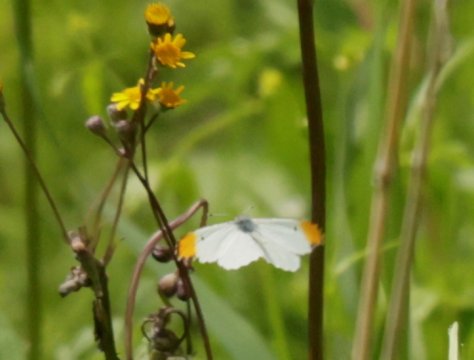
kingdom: Animalia
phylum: Arthropoda
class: Insecta
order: Lepidoptera
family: Pieridae
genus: Anthocharis
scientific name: Anthocharis midea
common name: Falcate Orangetip
